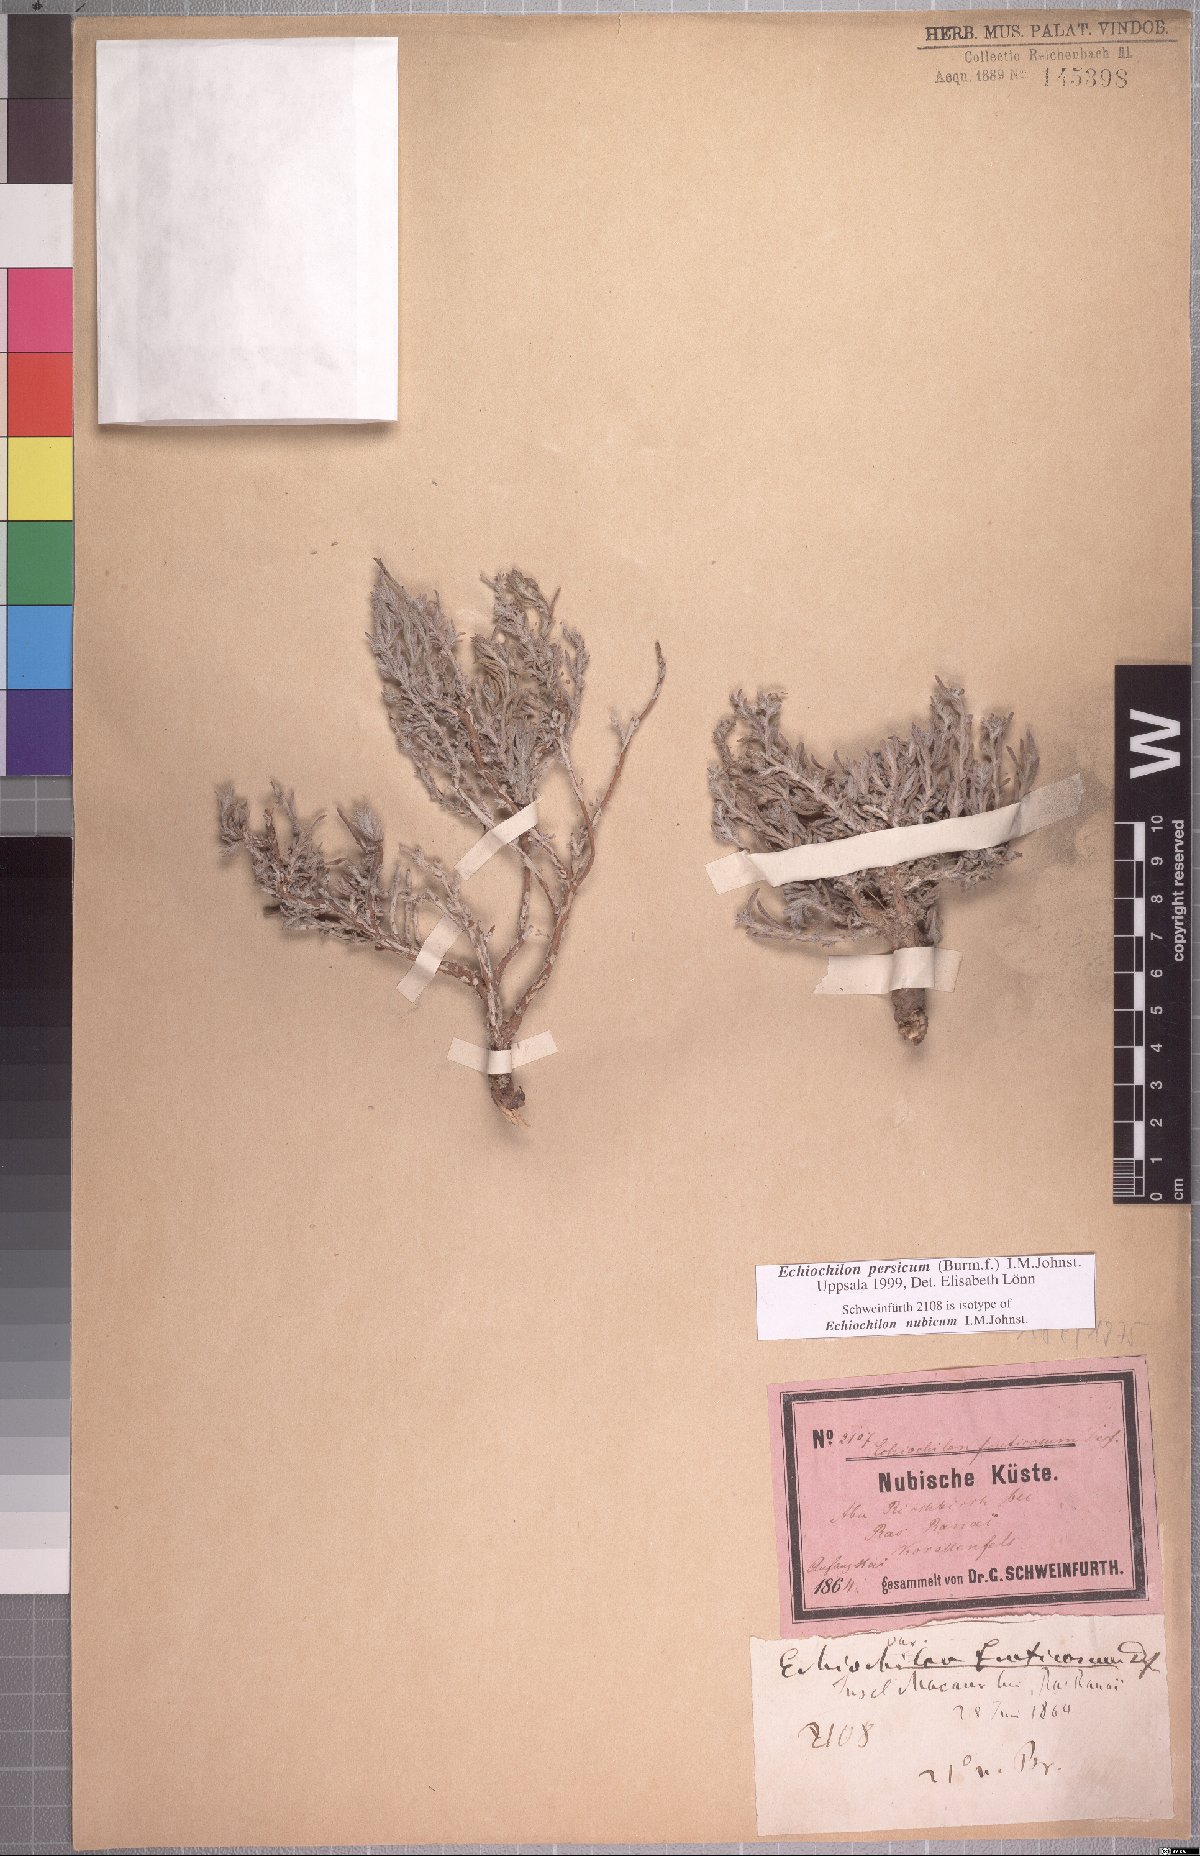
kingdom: Plantae
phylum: Tracheophyta
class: Magnoliopsida
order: Boraginales
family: Boraginaceae
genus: Echiochilon
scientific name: Echiochilon persicum
